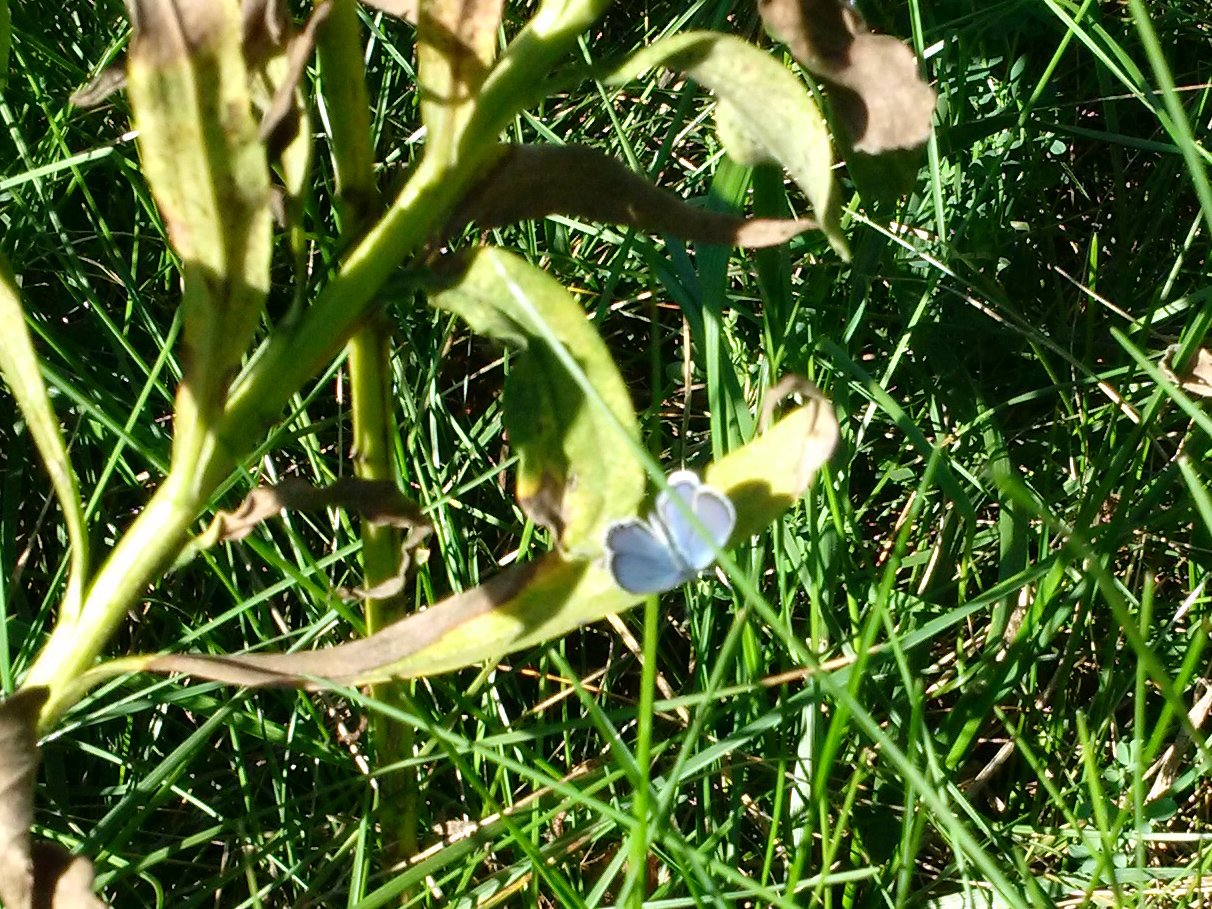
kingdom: Animalia
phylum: Arthropoda
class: Insecta
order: Lepidoptera
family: Lycaenidae
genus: Elkalyce
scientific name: Elkalyce comyntas
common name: Eastern Tailed-Blue
